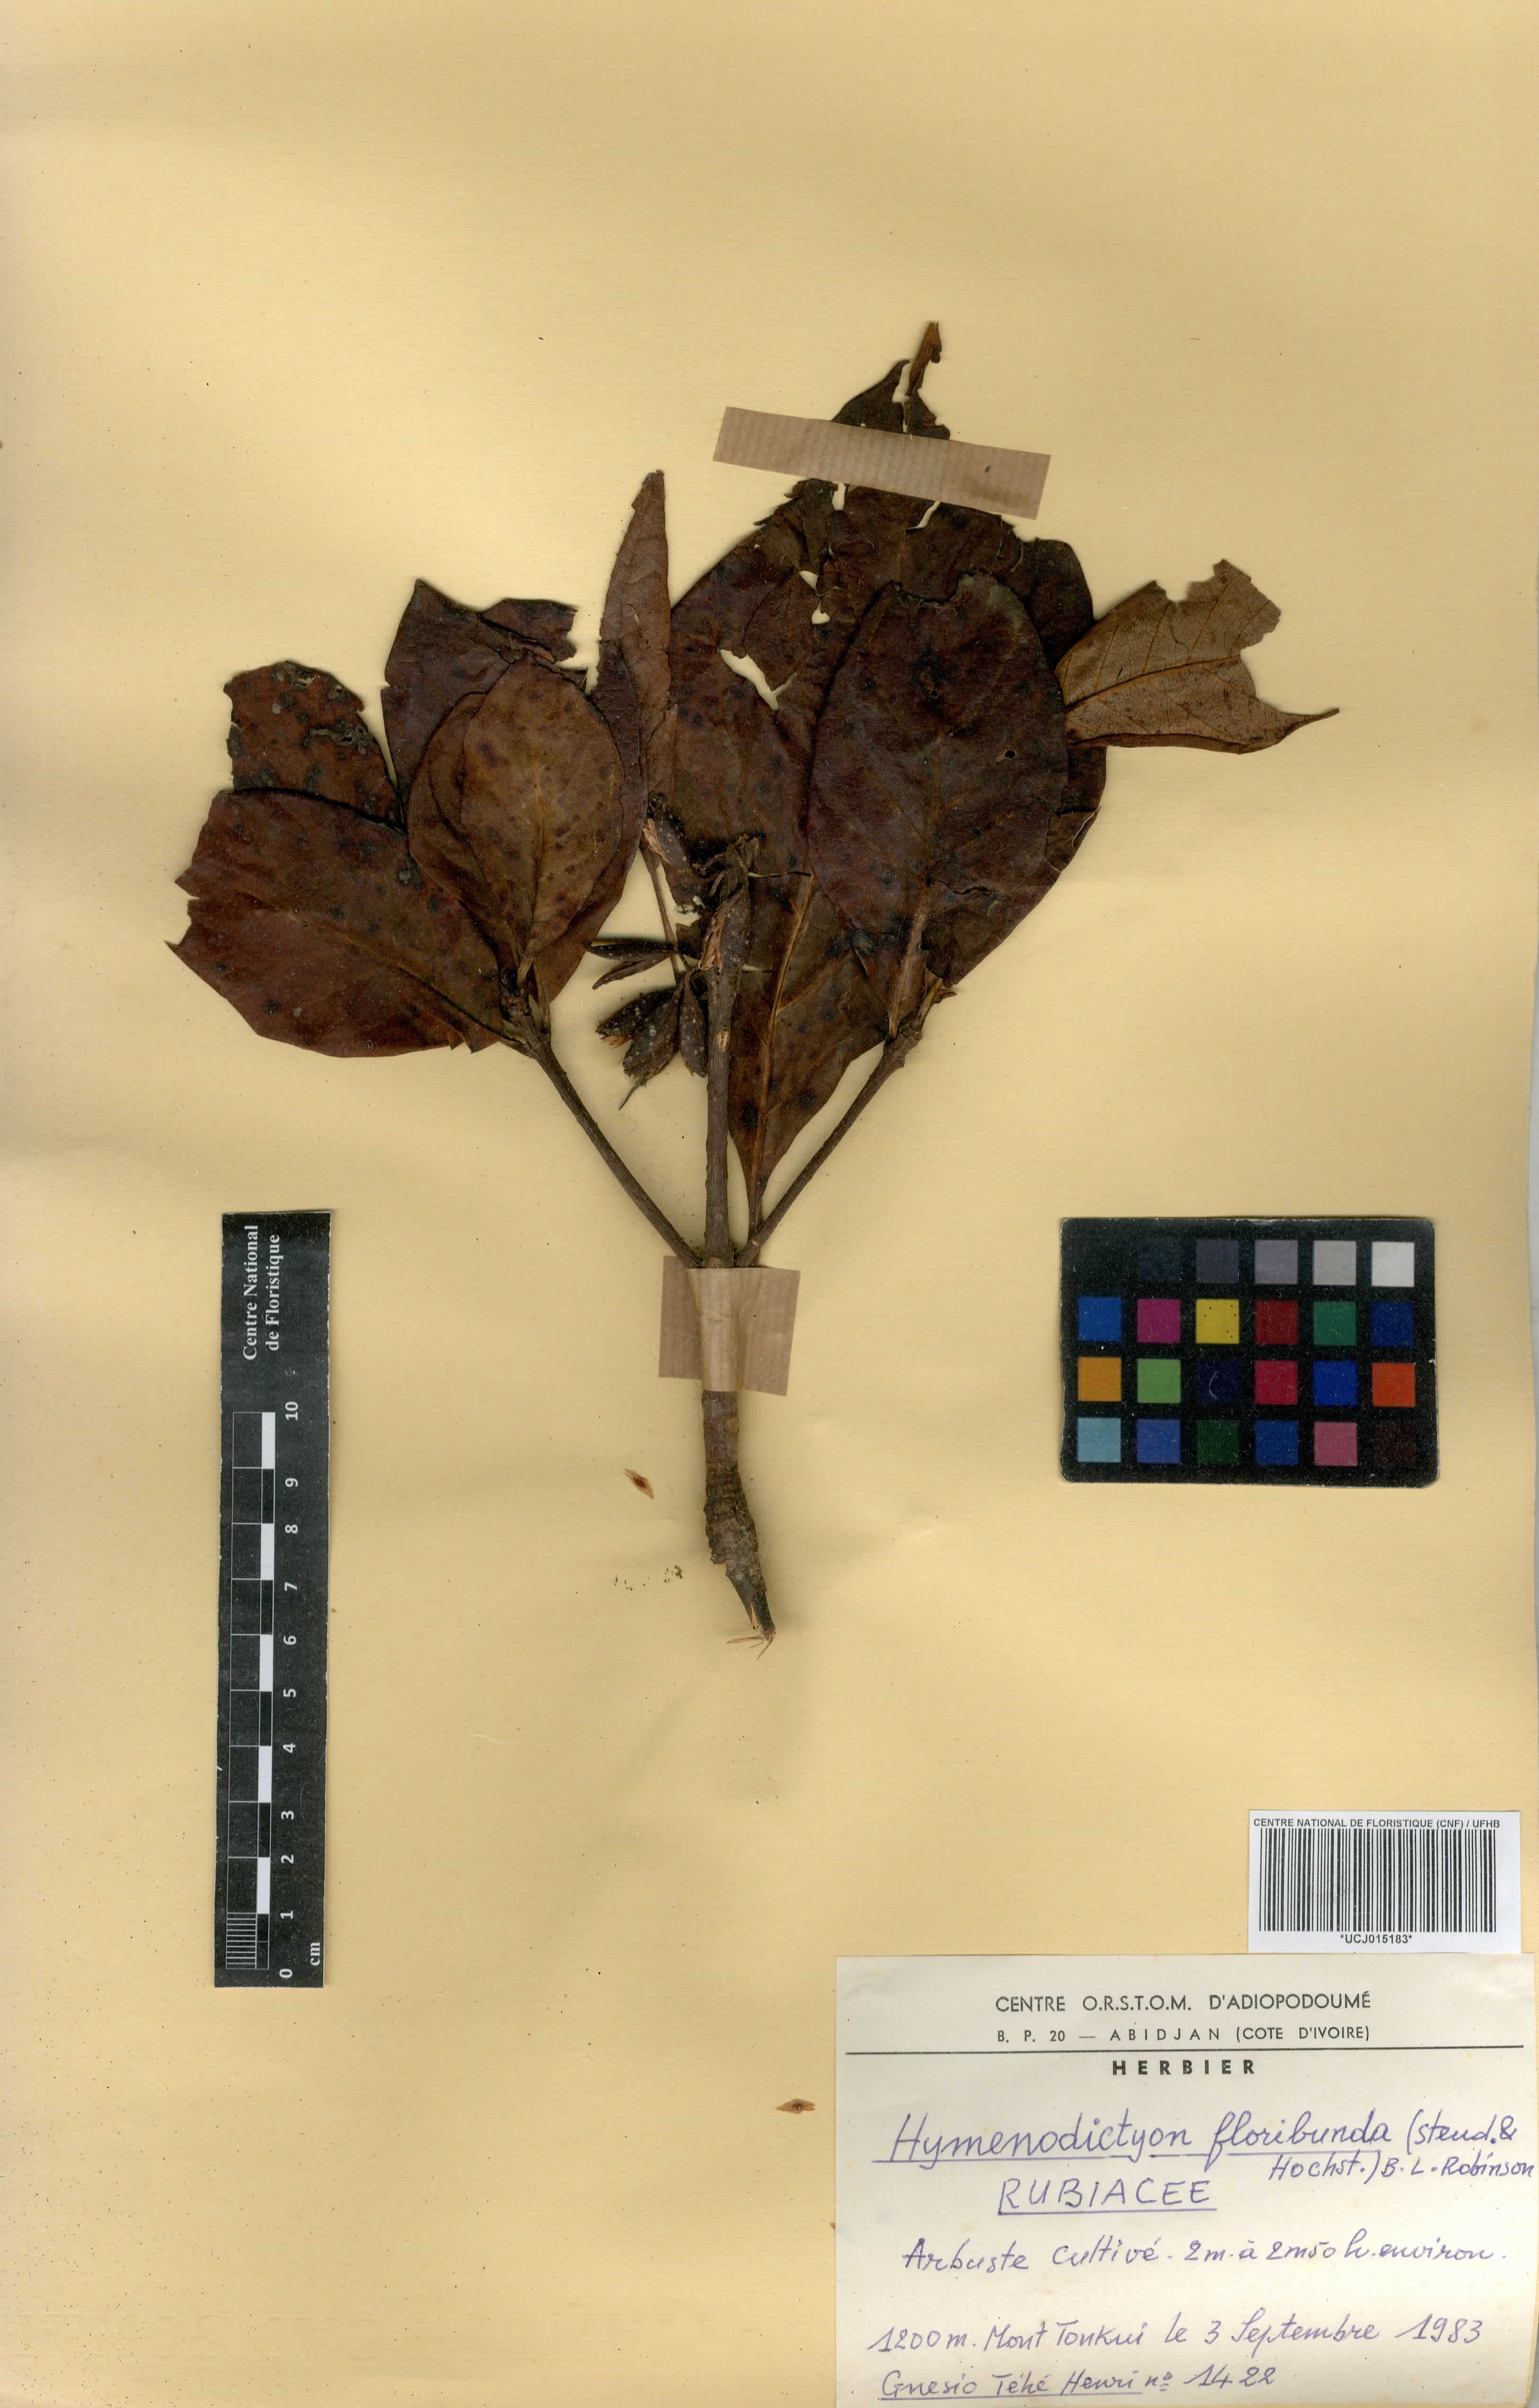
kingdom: Plantae
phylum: Tracheophyta
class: Magnoliopsida
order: Gentianales
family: Rubiaceae
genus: Hymenodictyon
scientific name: Hymenodictyon floribundum
